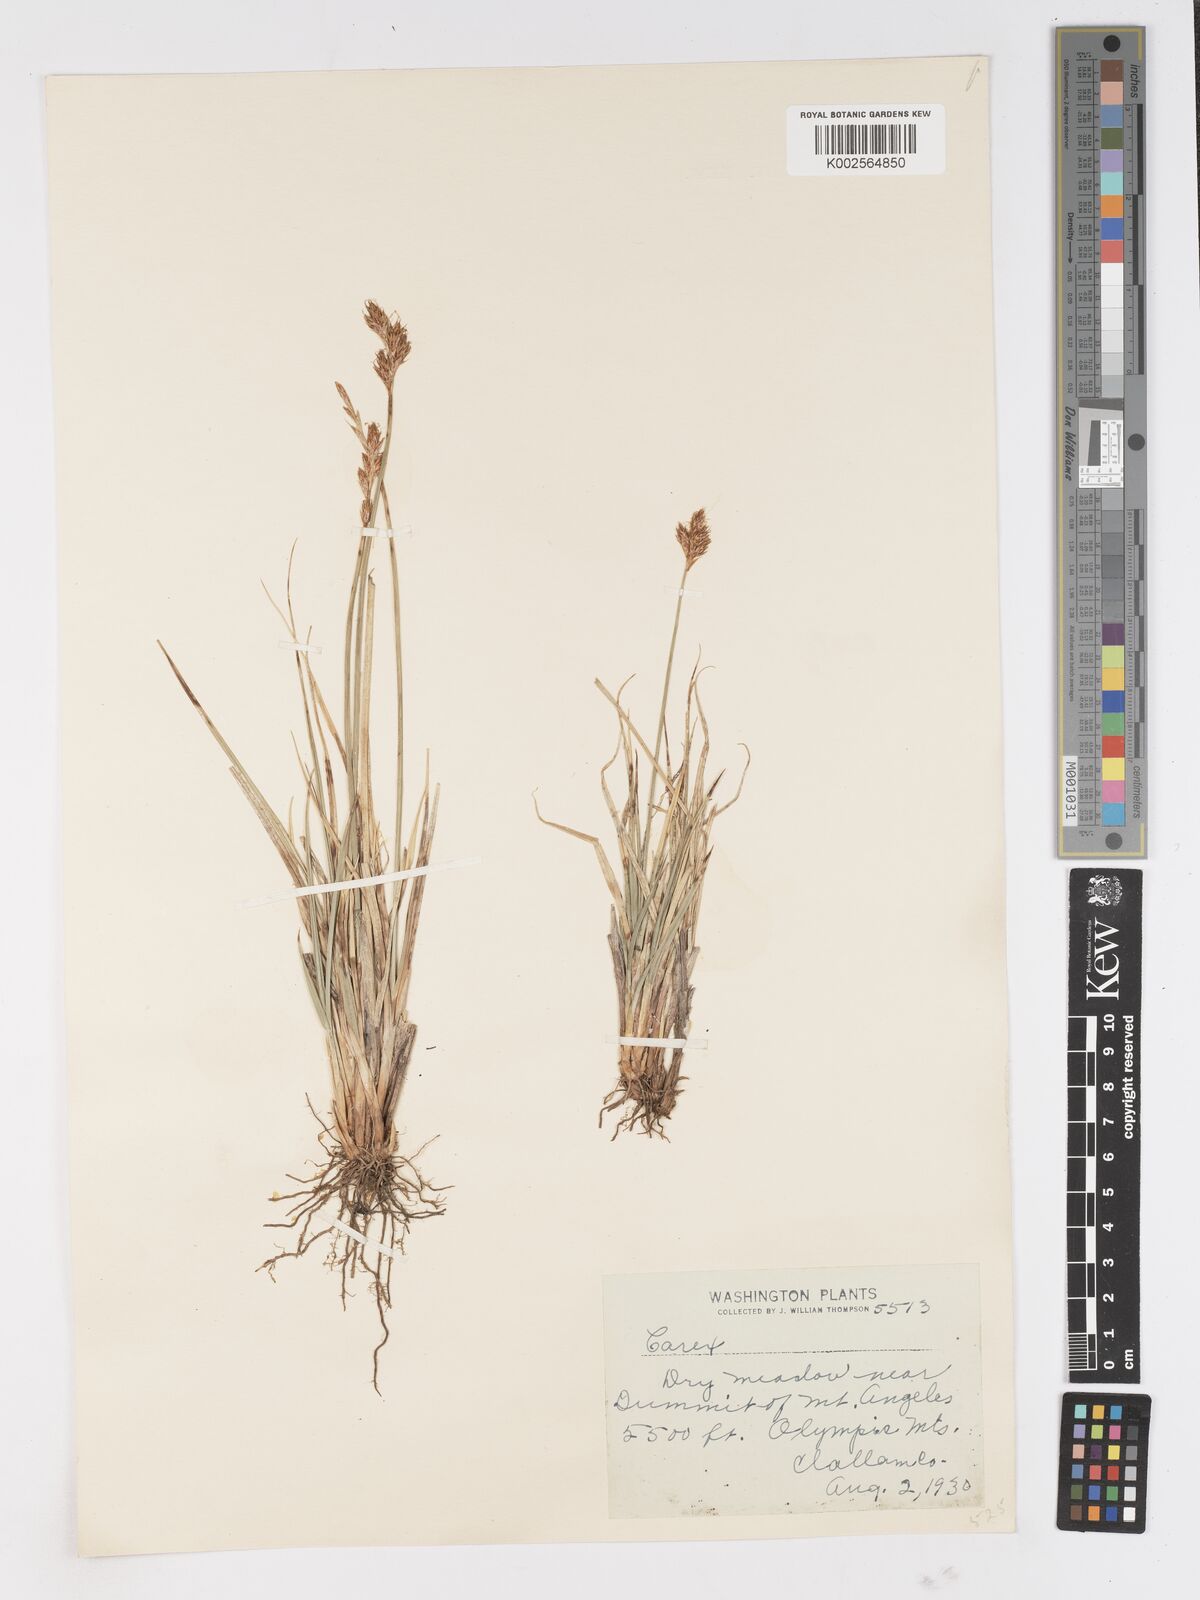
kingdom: Plantae
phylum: Tracheophyta
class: Liliopsida
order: Poales
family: Cyperaceae
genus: Carex
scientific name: Carex
